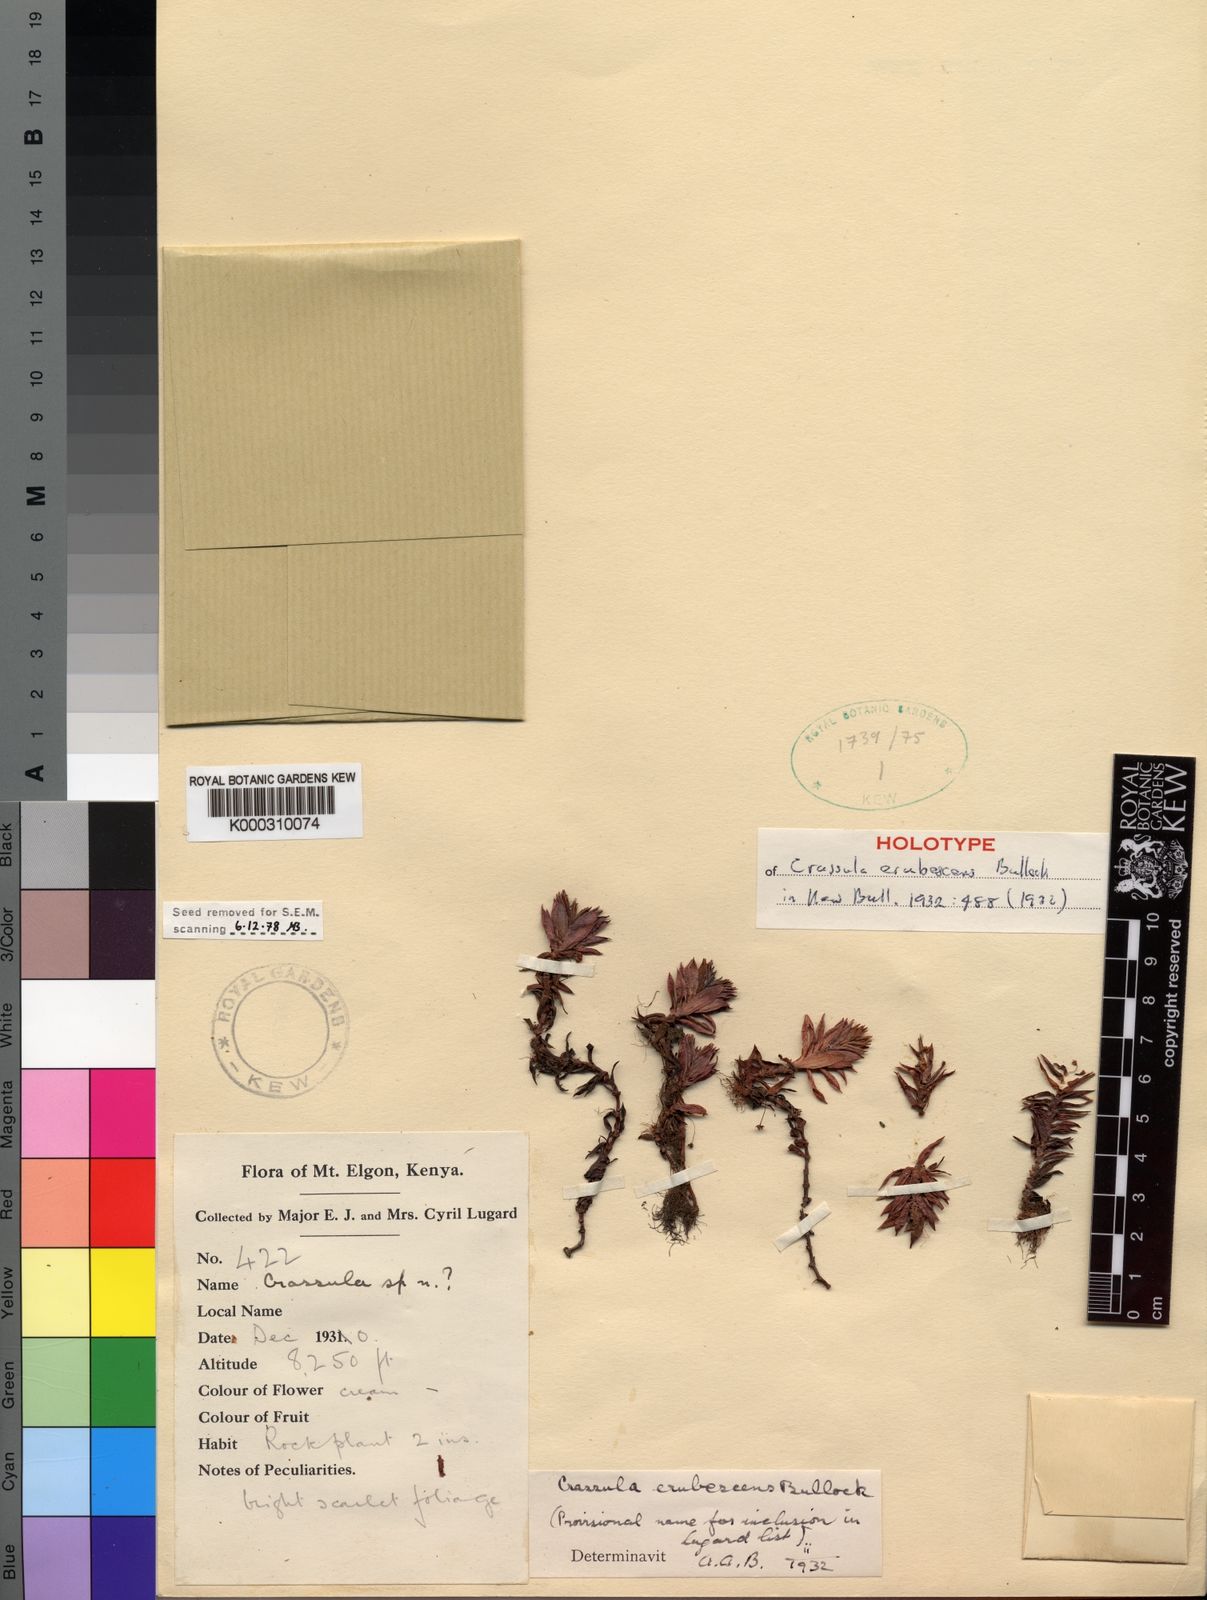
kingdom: Plantae
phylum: Tracheophyta
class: Magnoliopsida
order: Saxifragales
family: Crassulaceae
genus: Crassula
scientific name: Crassula granvikii
